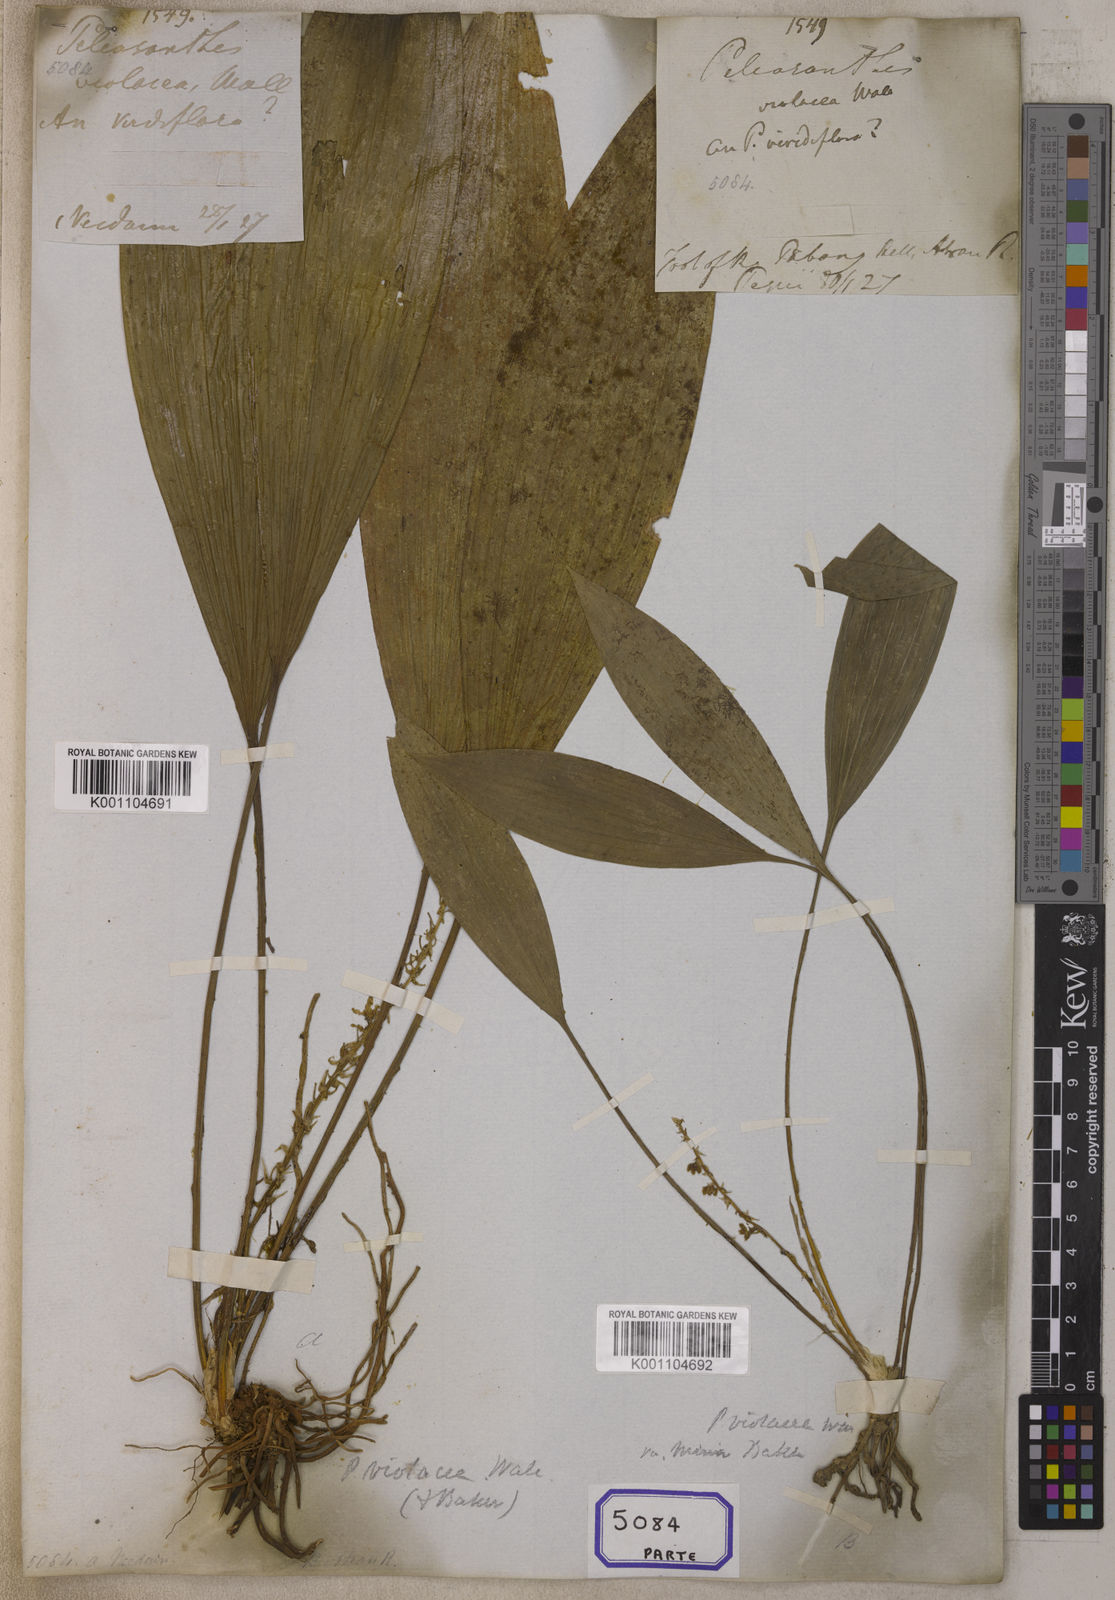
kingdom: Plantae
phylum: Tracheophyta
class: Liliopsida
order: Asparagales
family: Asparagaceae
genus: Peliosanthes
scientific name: Peliosanthes
